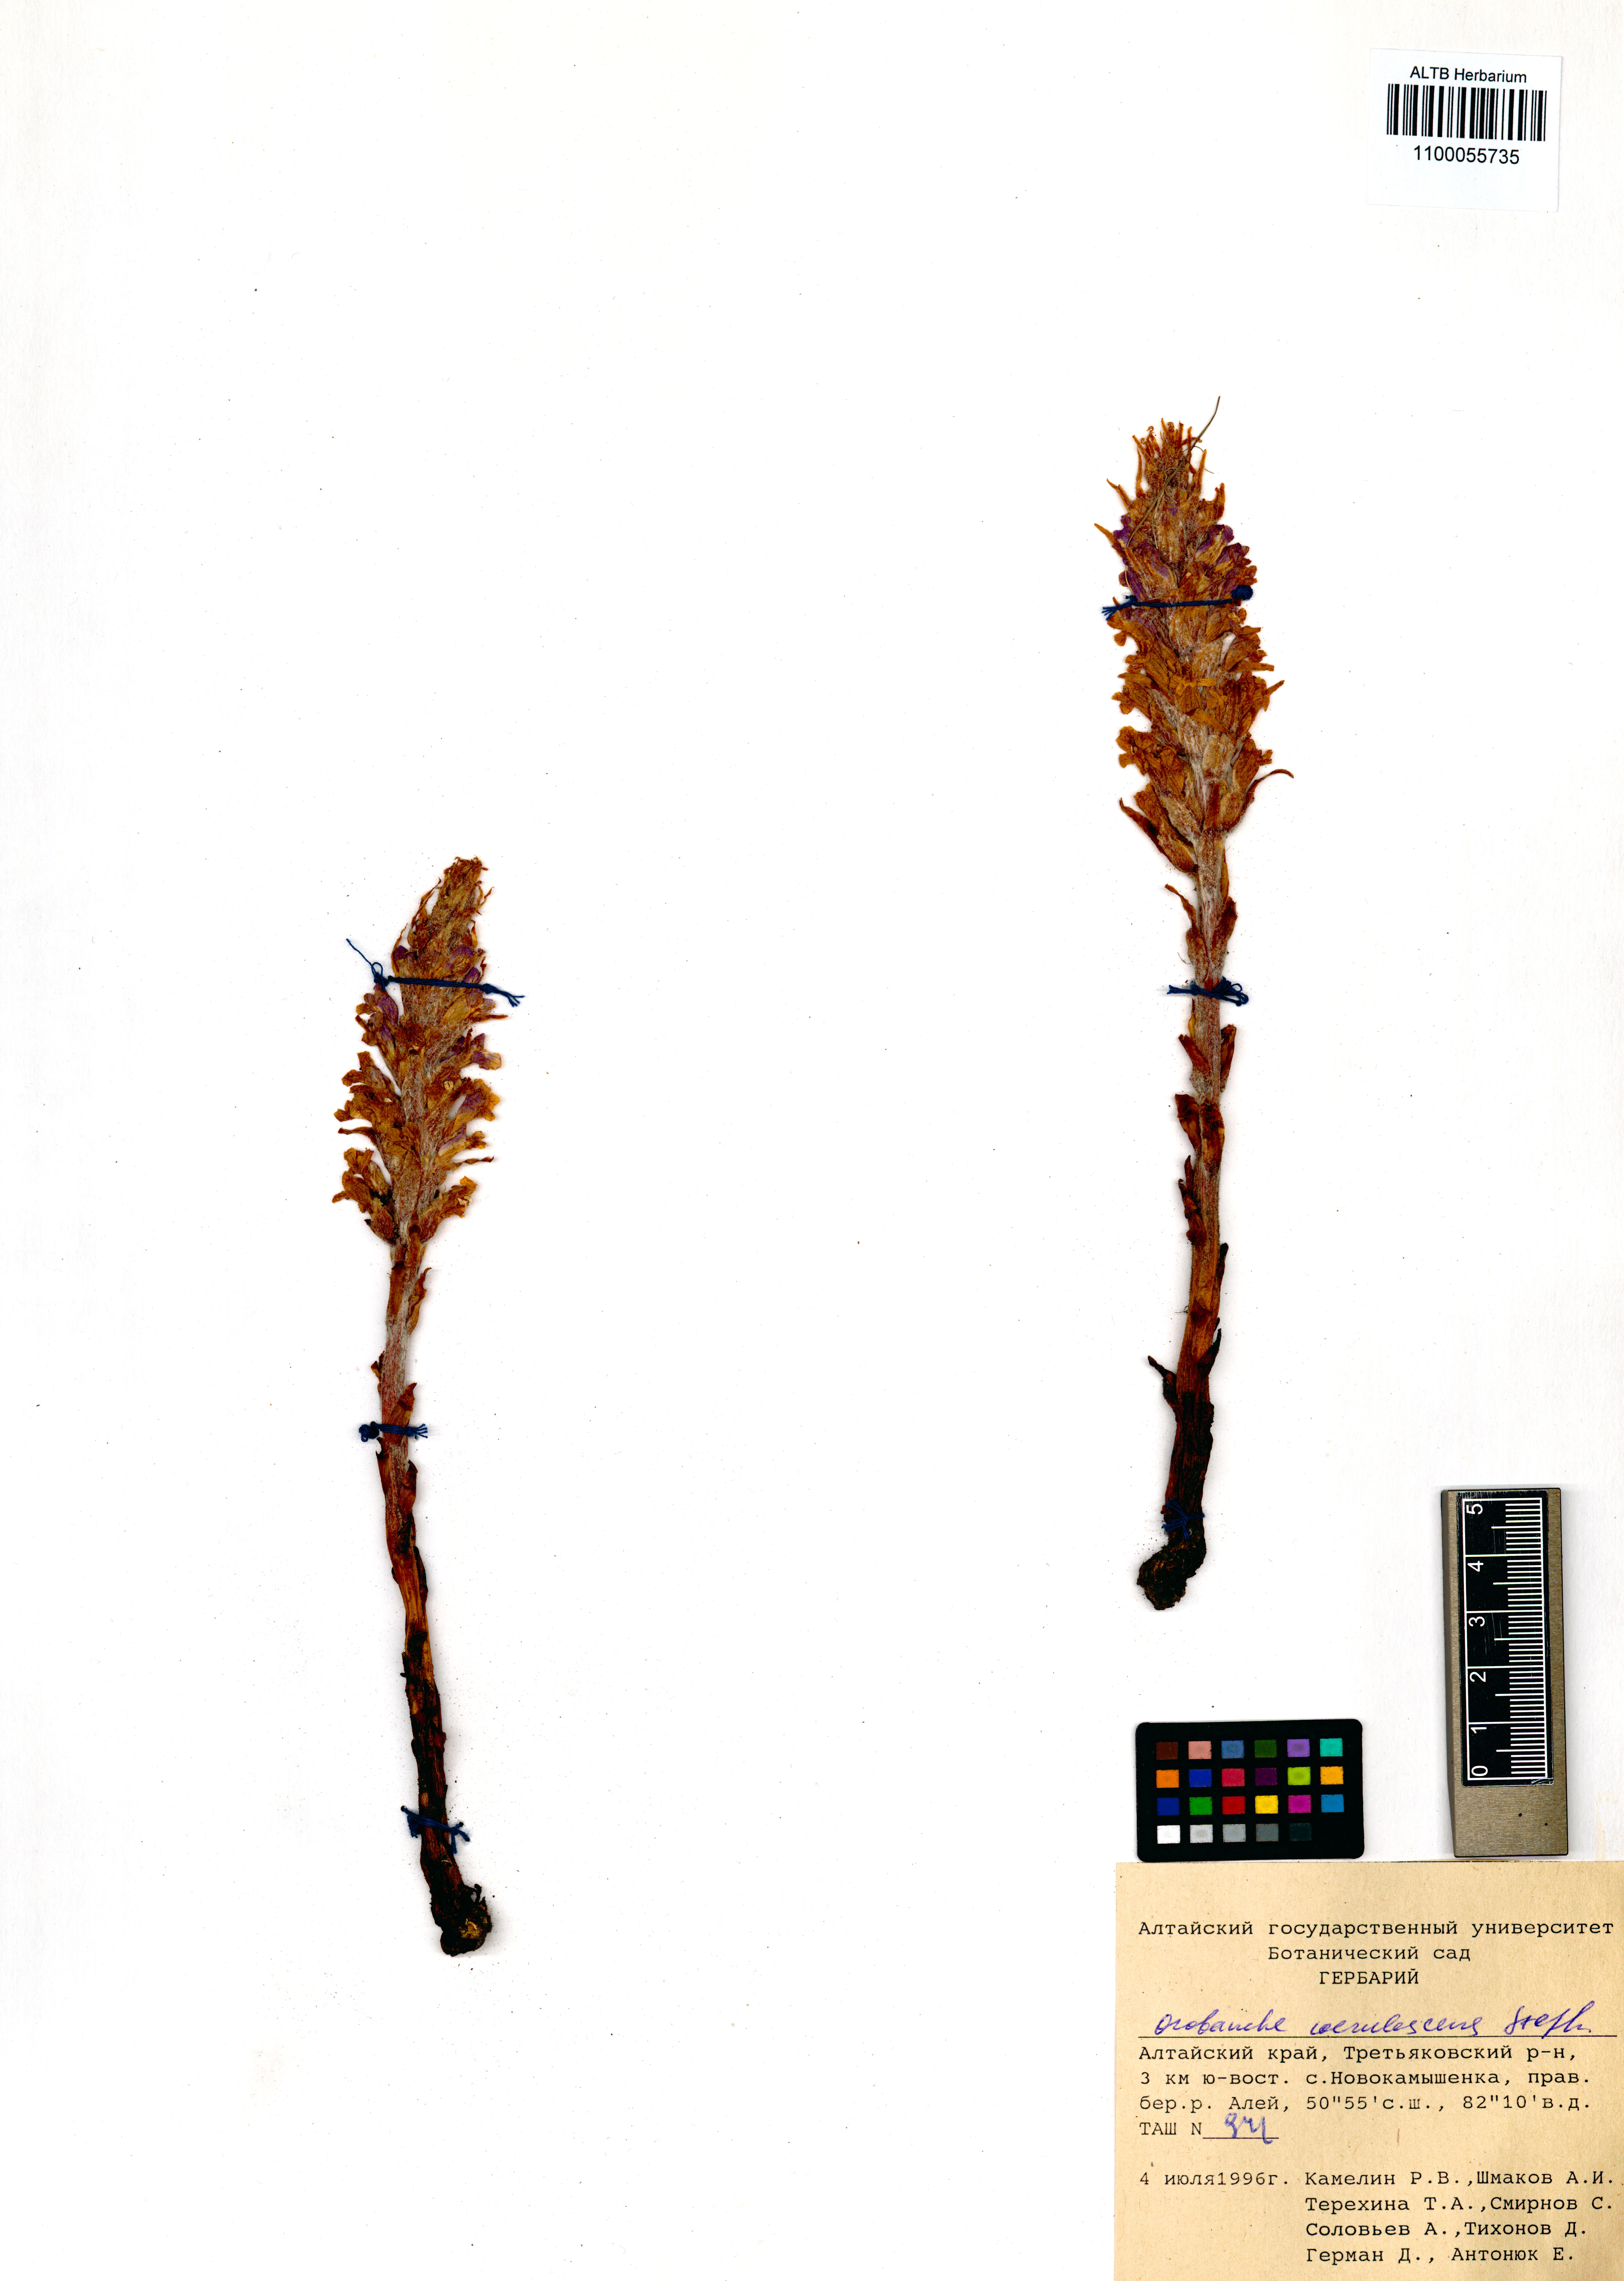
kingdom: Plantae
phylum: Tracheophyta
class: Magnoliopsida
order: Lamiales
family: Orobanchaceae
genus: Orobanche
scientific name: Orobanche coerulescens
